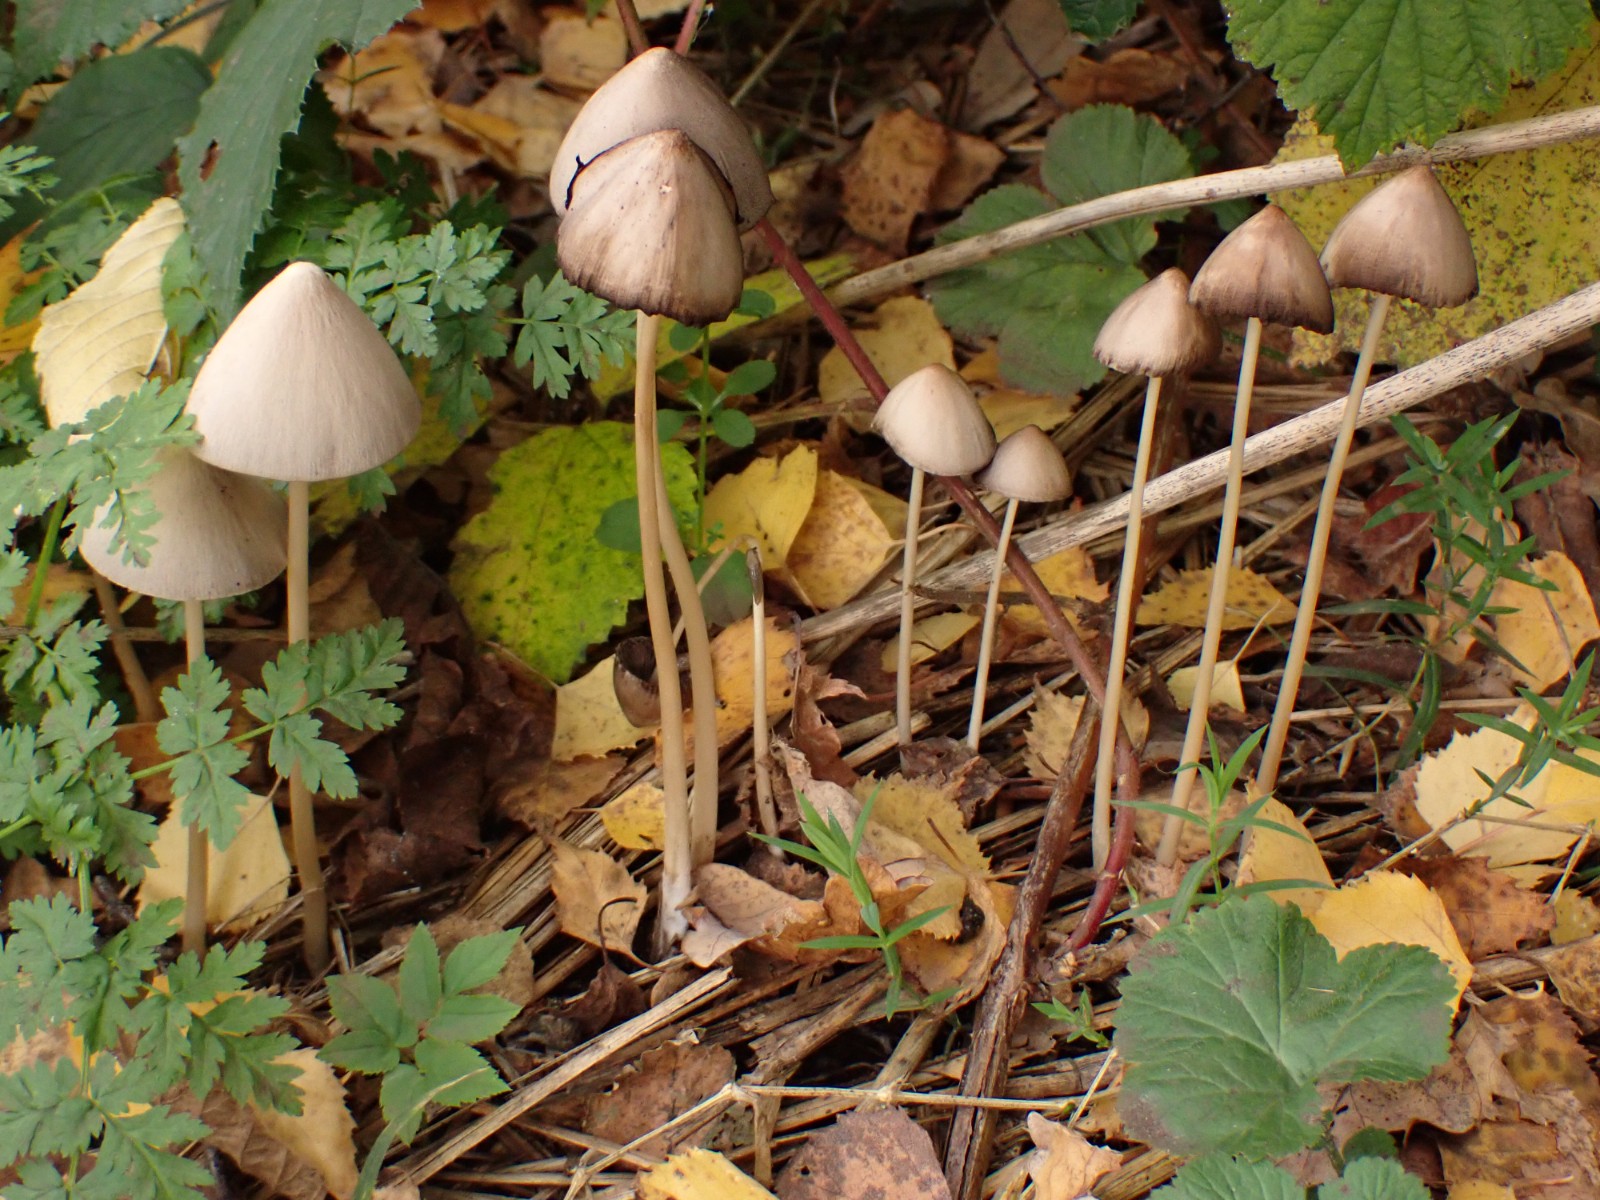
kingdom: Fungi
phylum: Basidiomycota
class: Agaricomycetes
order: Agaricales
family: Psathyrellaceae
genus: Parasola
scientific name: Parasola conopilea
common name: kegle-hjulhat
